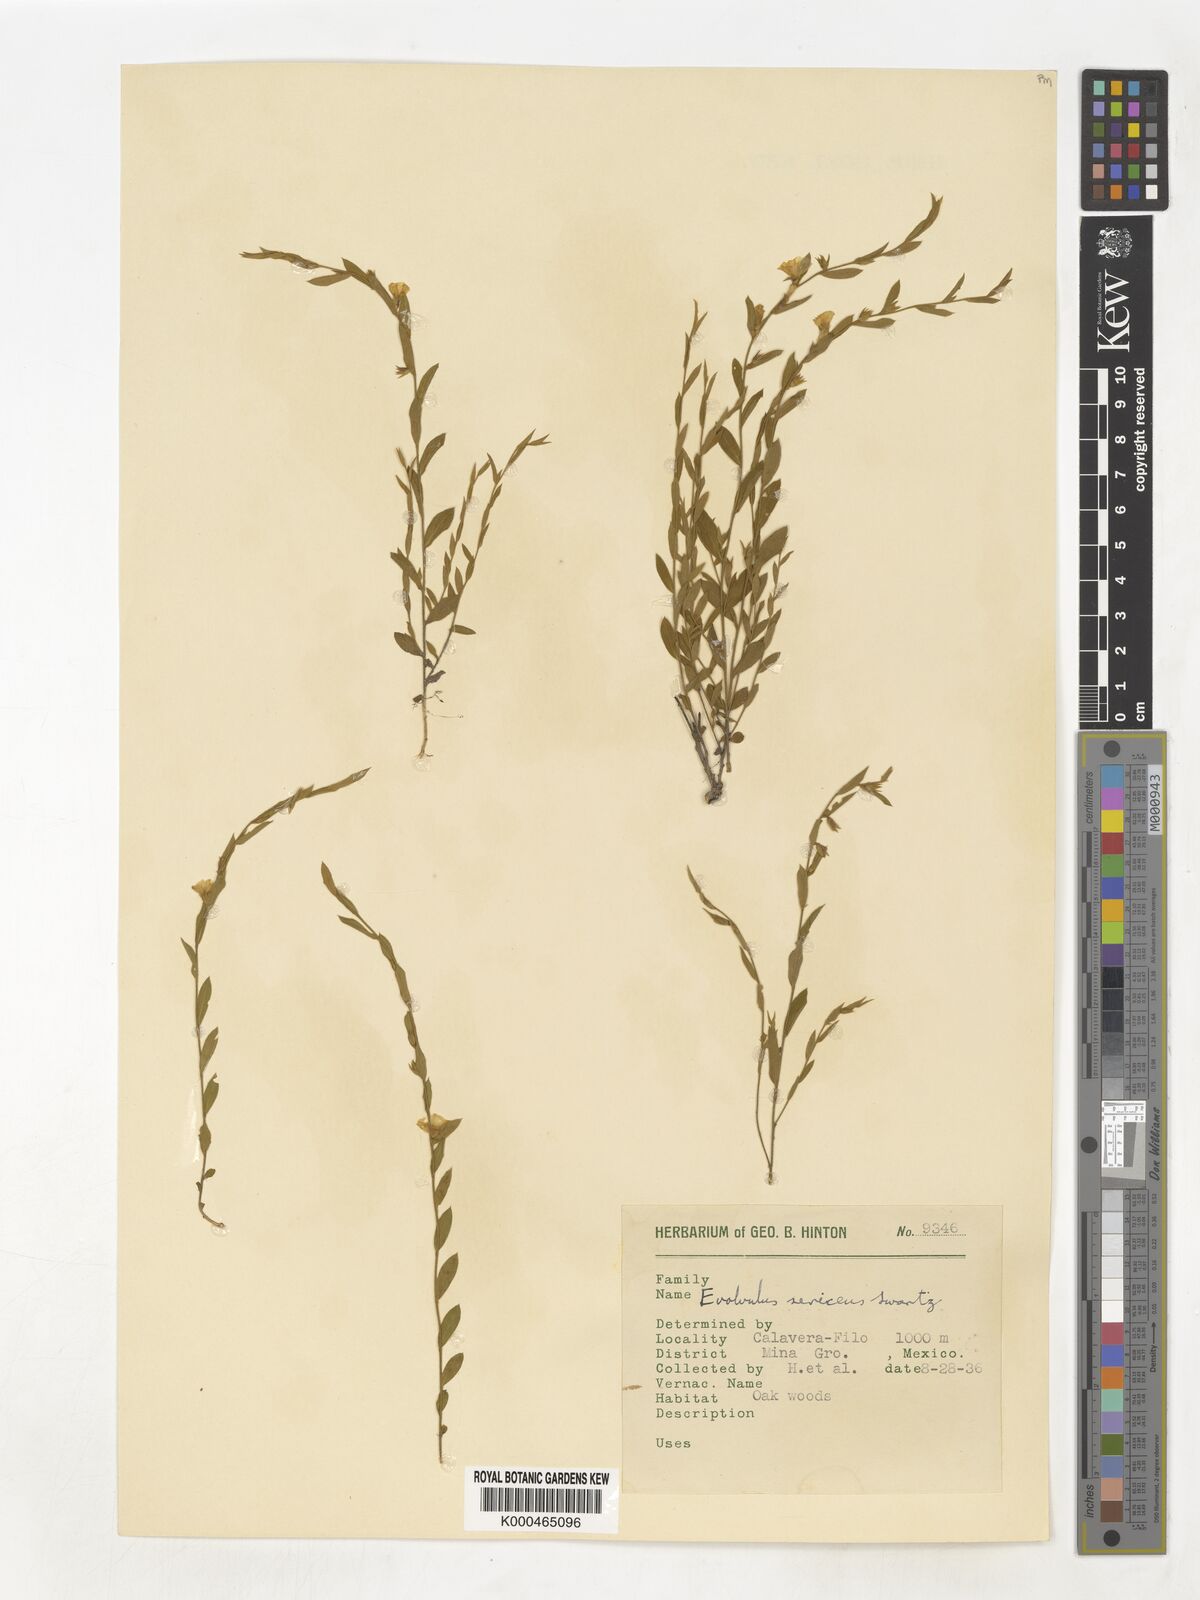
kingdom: Plantae
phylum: Tracheophyta
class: Magnoliopsida
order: Solanales
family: Convolvulaceae
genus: Evolvulus
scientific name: Evolvulus
